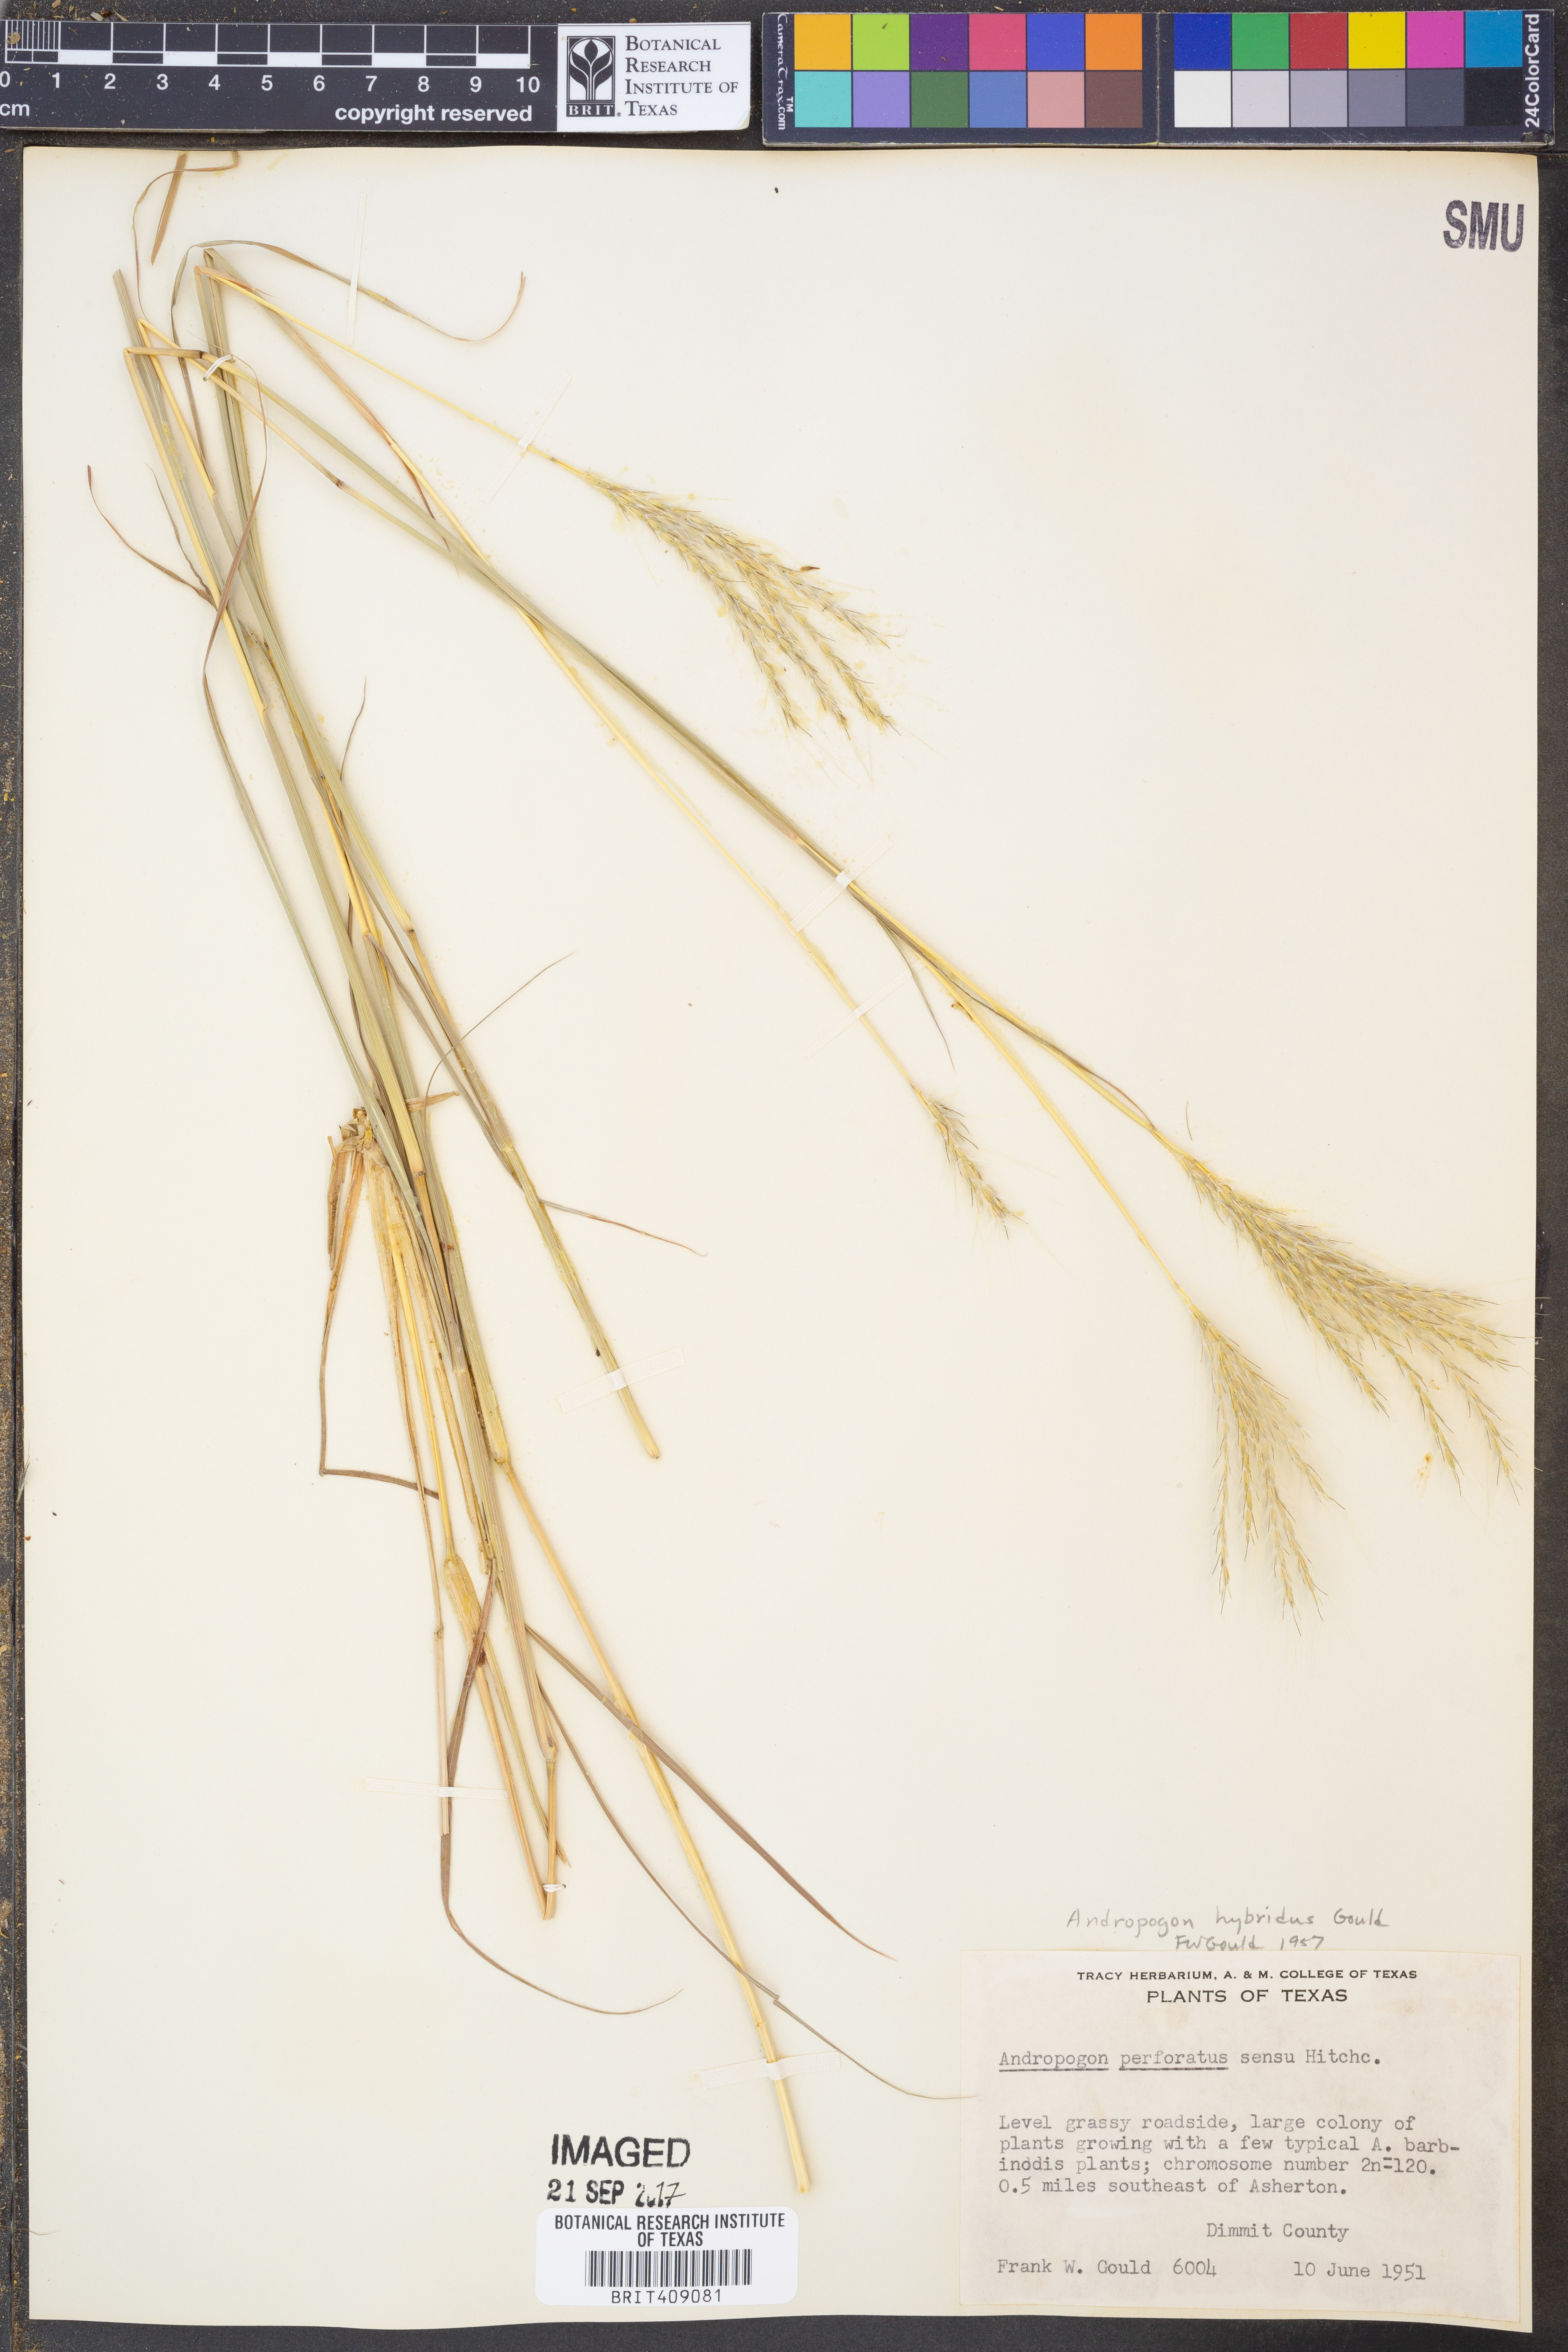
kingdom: Plantae
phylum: Tracheophyta
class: Liliopsida
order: Poales
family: Poaceae
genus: Bothriochloa
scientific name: Bothriochloa hybrida
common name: Hybrid bluestem
